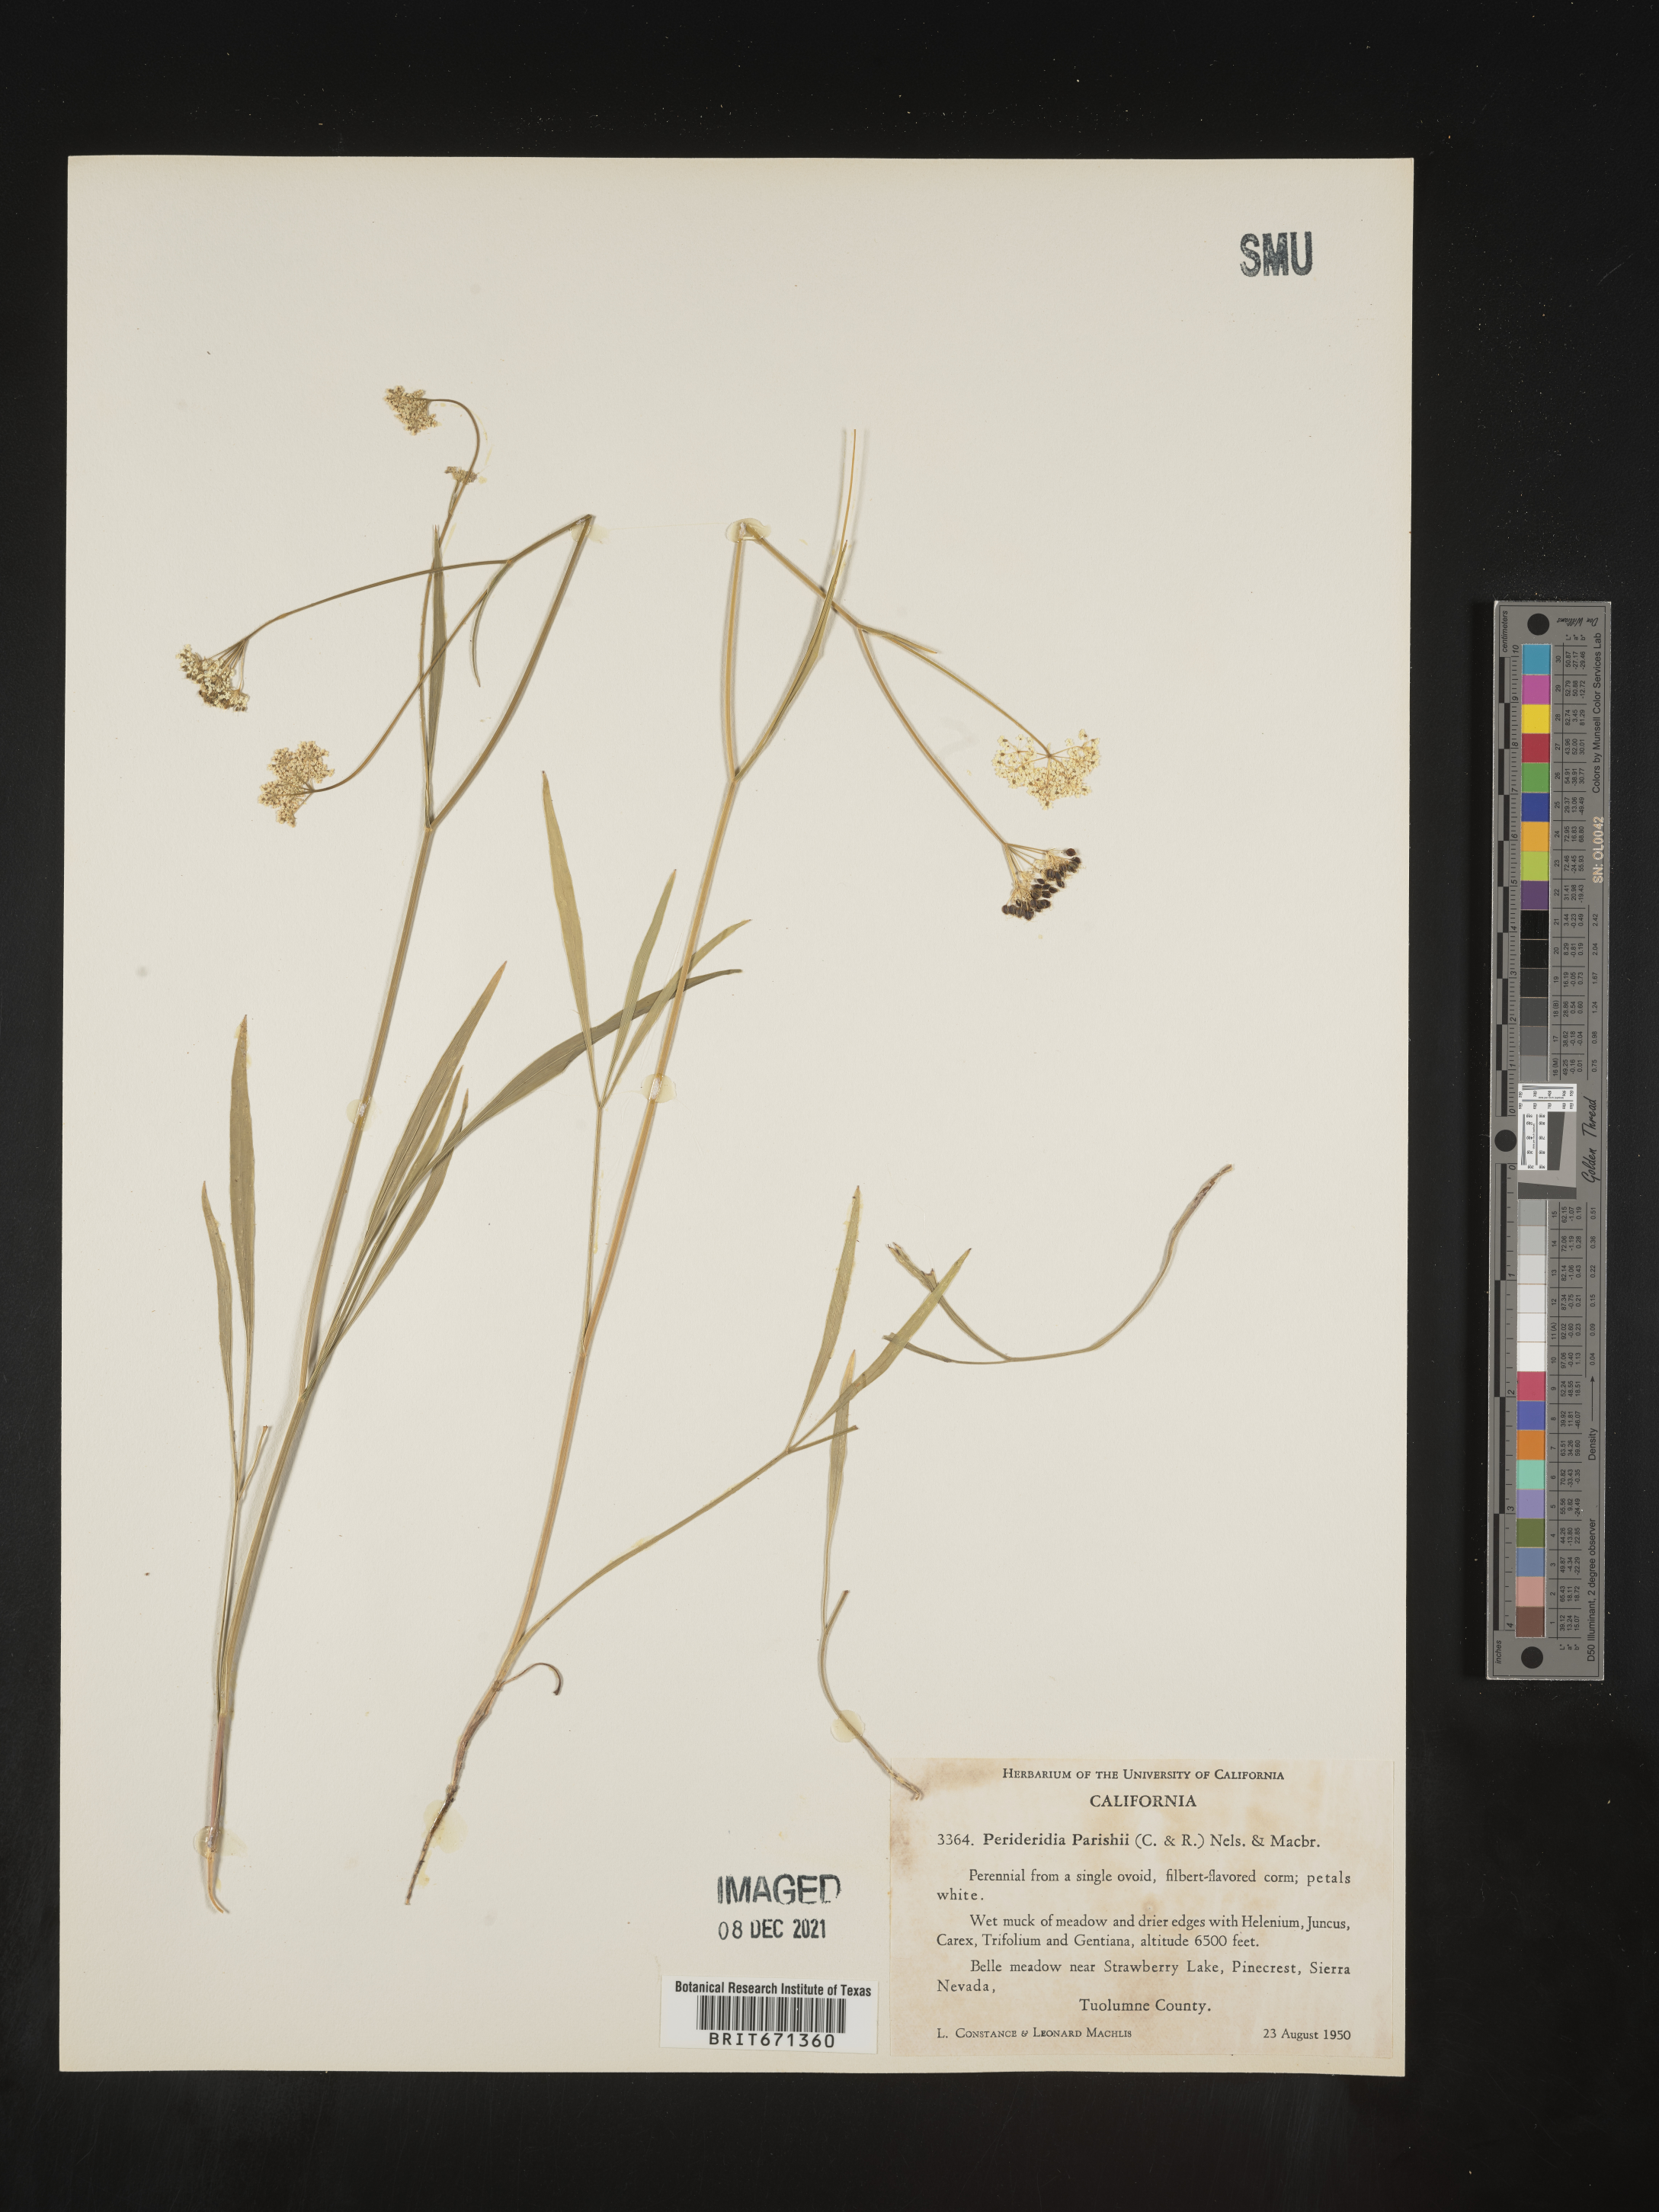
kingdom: Plantae
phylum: Tracheophyta
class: Magnoliopsida
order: Apiales
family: Apiaceae
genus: Perideridia
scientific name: Perideridia parishii
